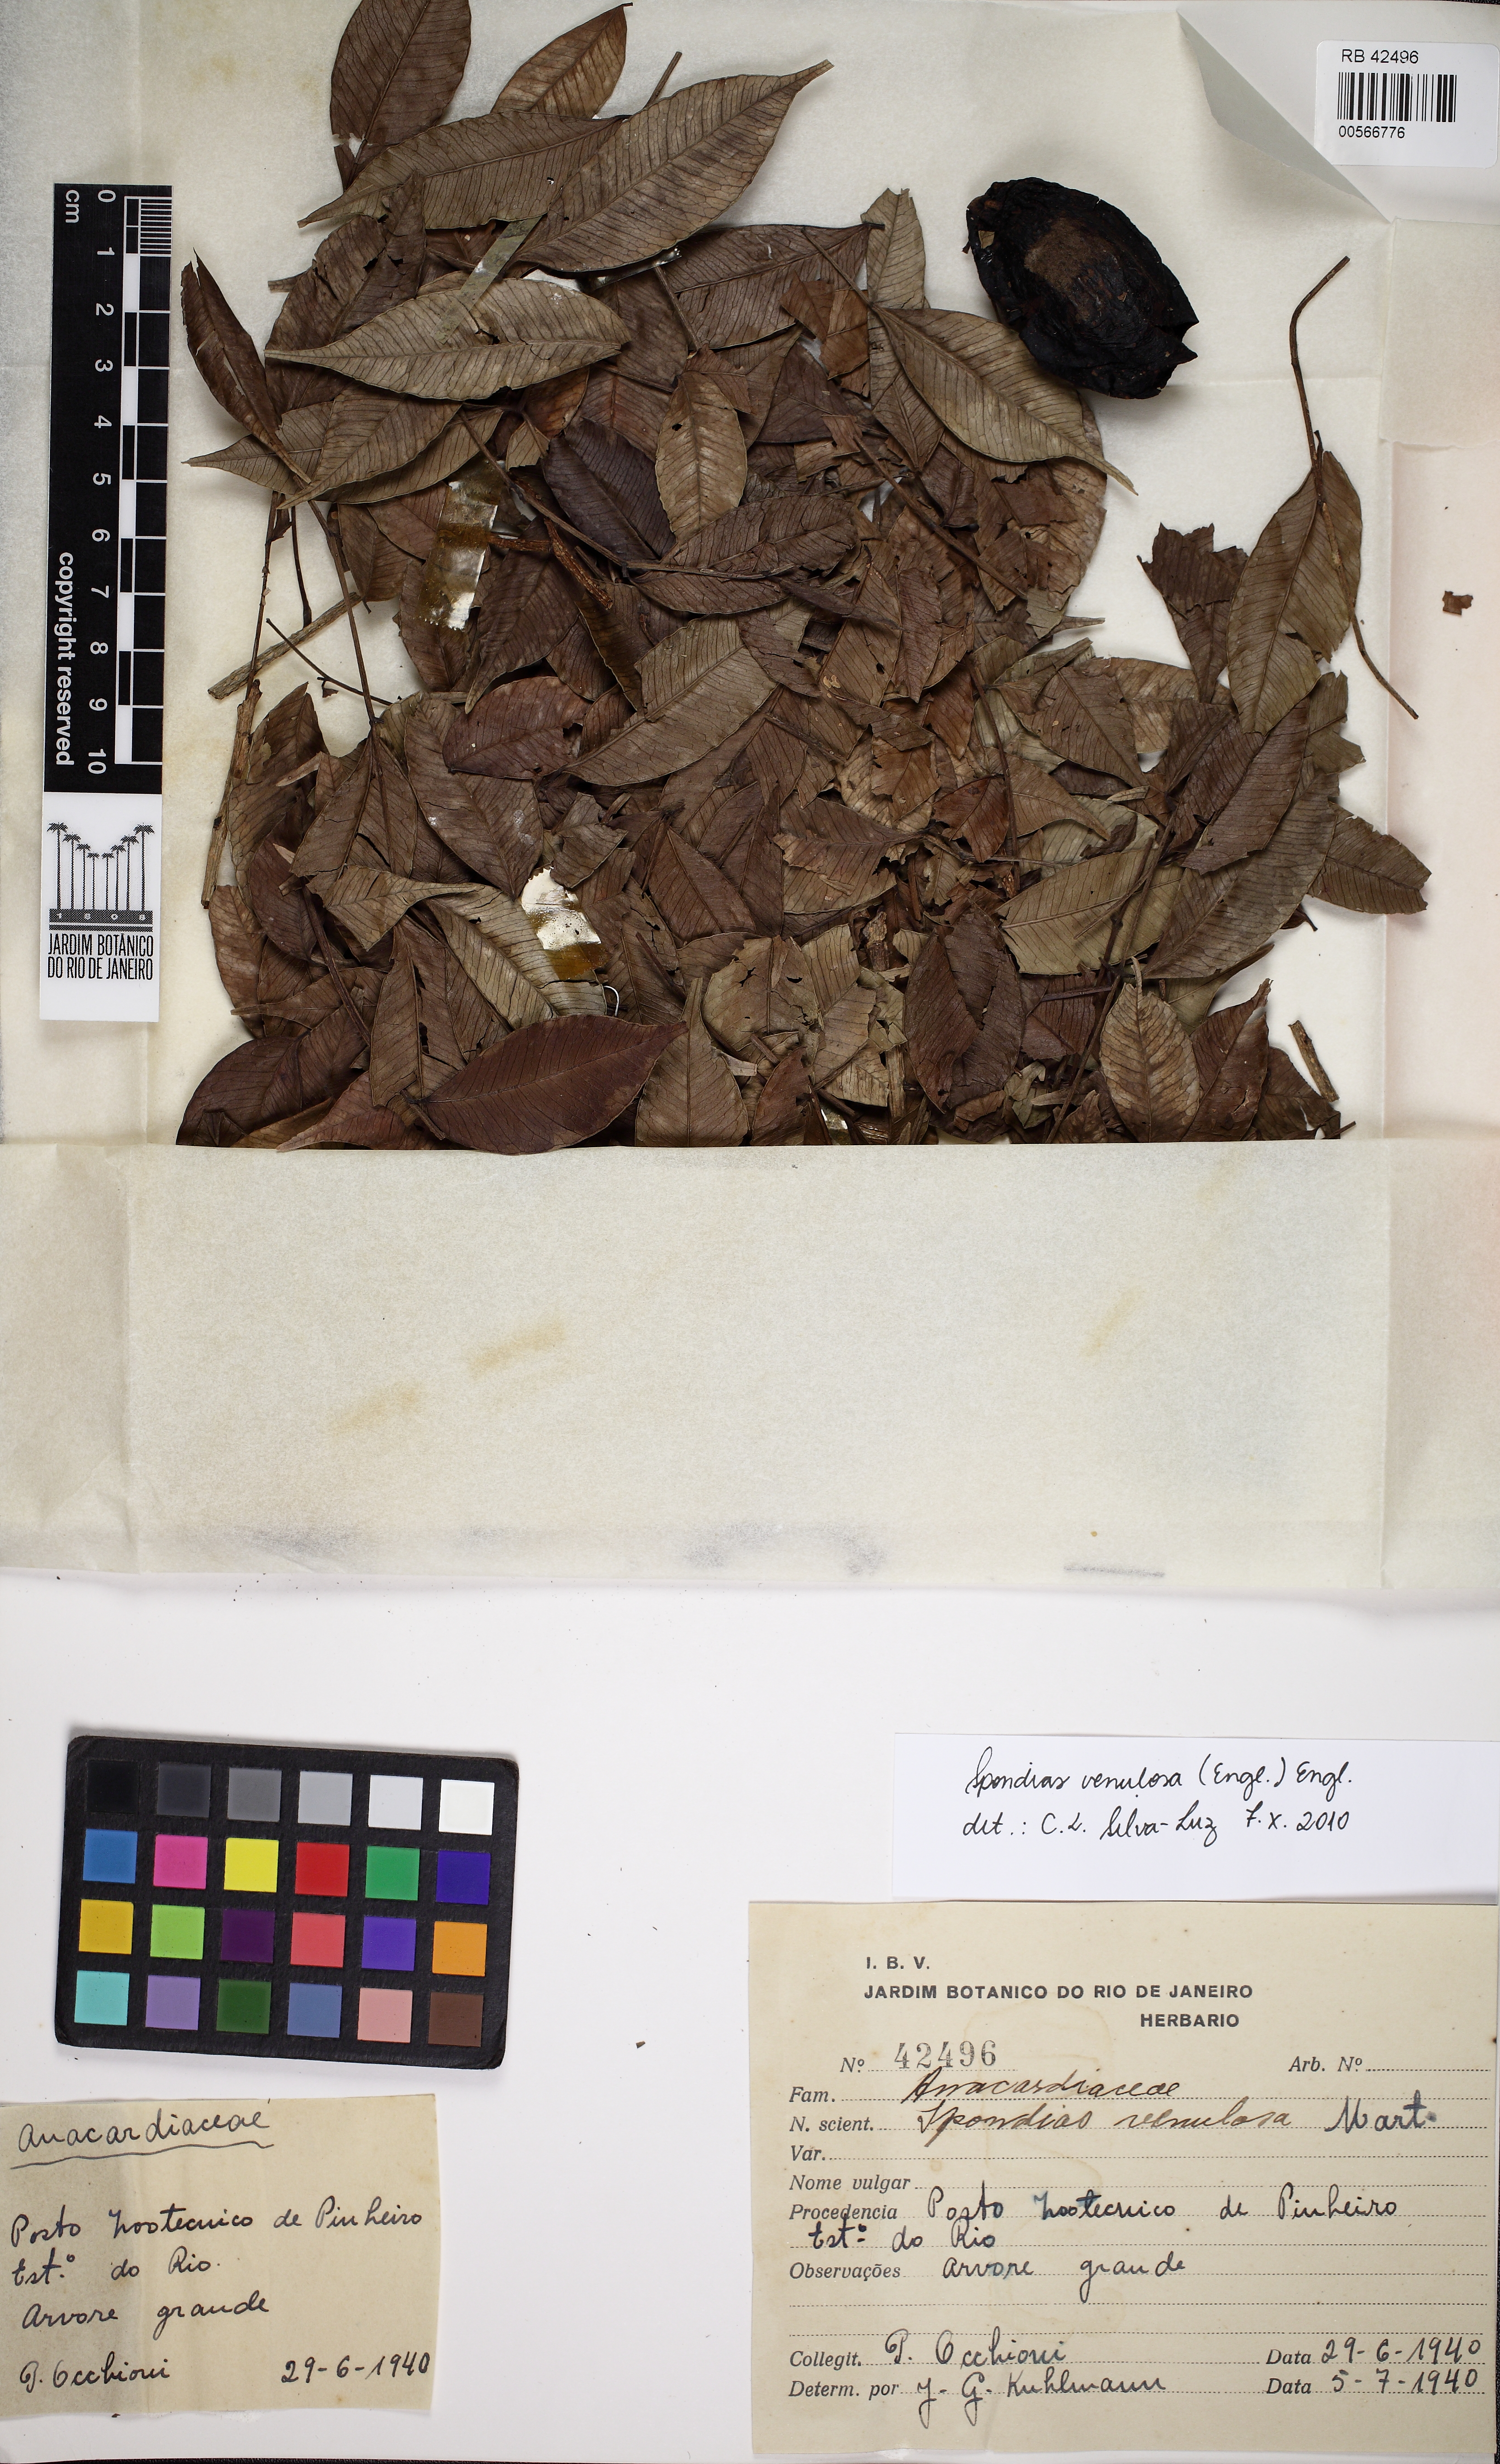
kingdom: Plantae
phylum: Tracheophyta
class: Magnoliopsida
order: Sapindales
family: Anacardiaceae
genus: Spondias
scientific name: Spondias venulosa
